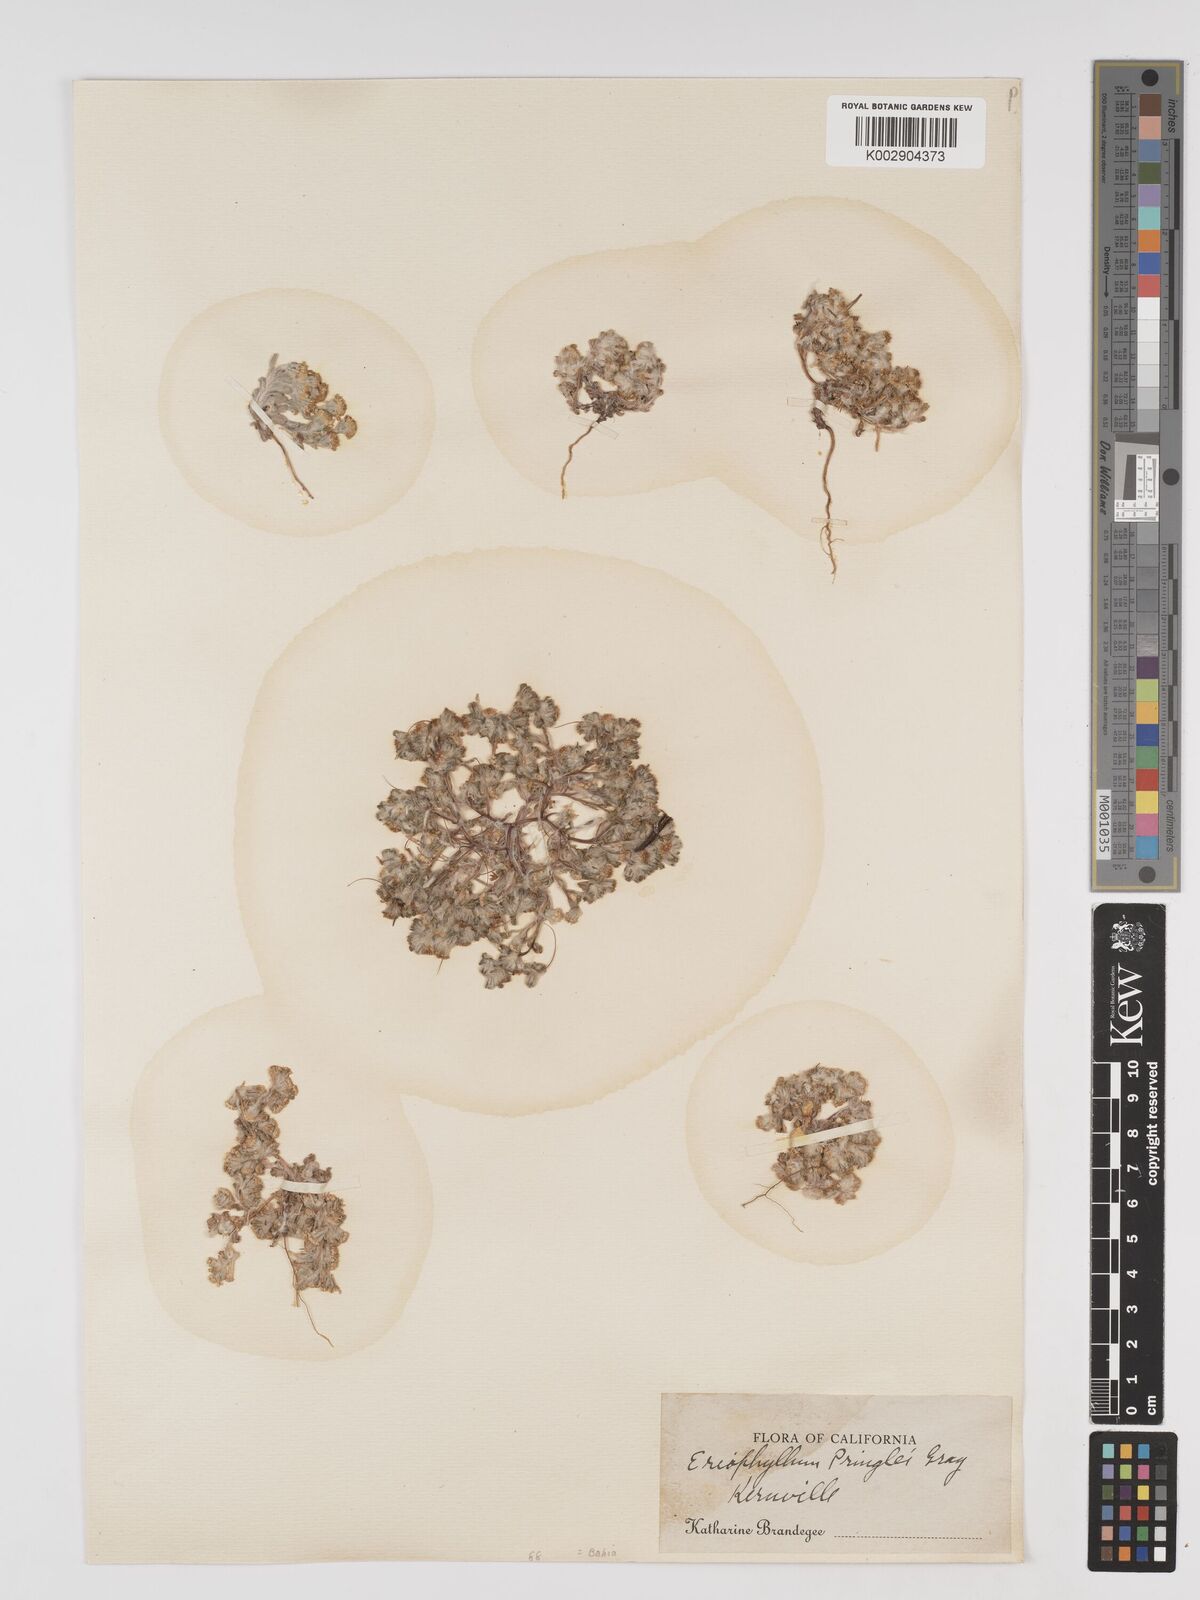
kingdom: Plantae
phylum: Tracheophyta
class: Magnoliopsida
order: Asterales
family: Asteraceae
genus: Eriophyllum
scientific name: Eriophyllum pringlei
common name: Pringle's woolly-sunflower
